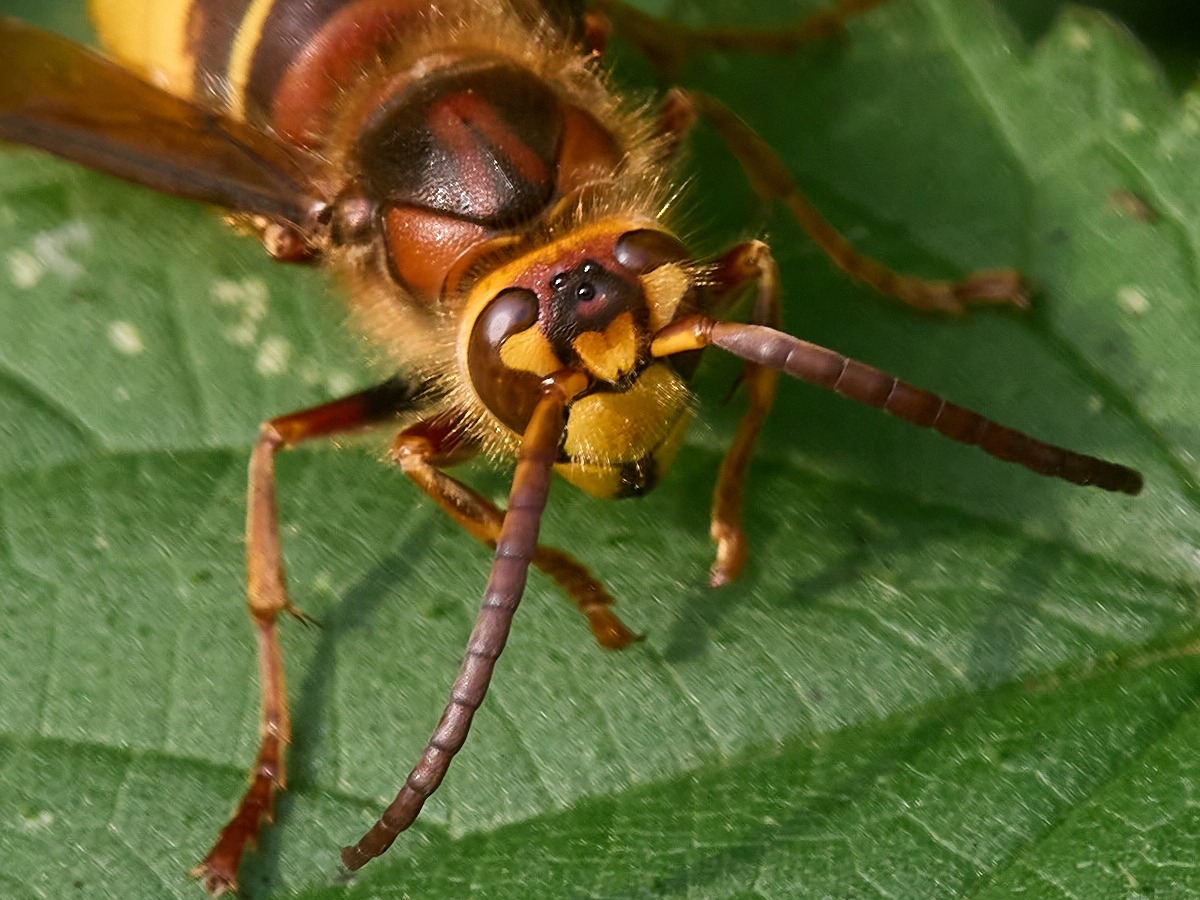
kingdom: Animalia
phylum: Arthropoda
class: Insecta
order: Hymenoptera
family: Vespidae
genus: Vespa
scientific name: Vespa crabro
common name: Stor gedehams
